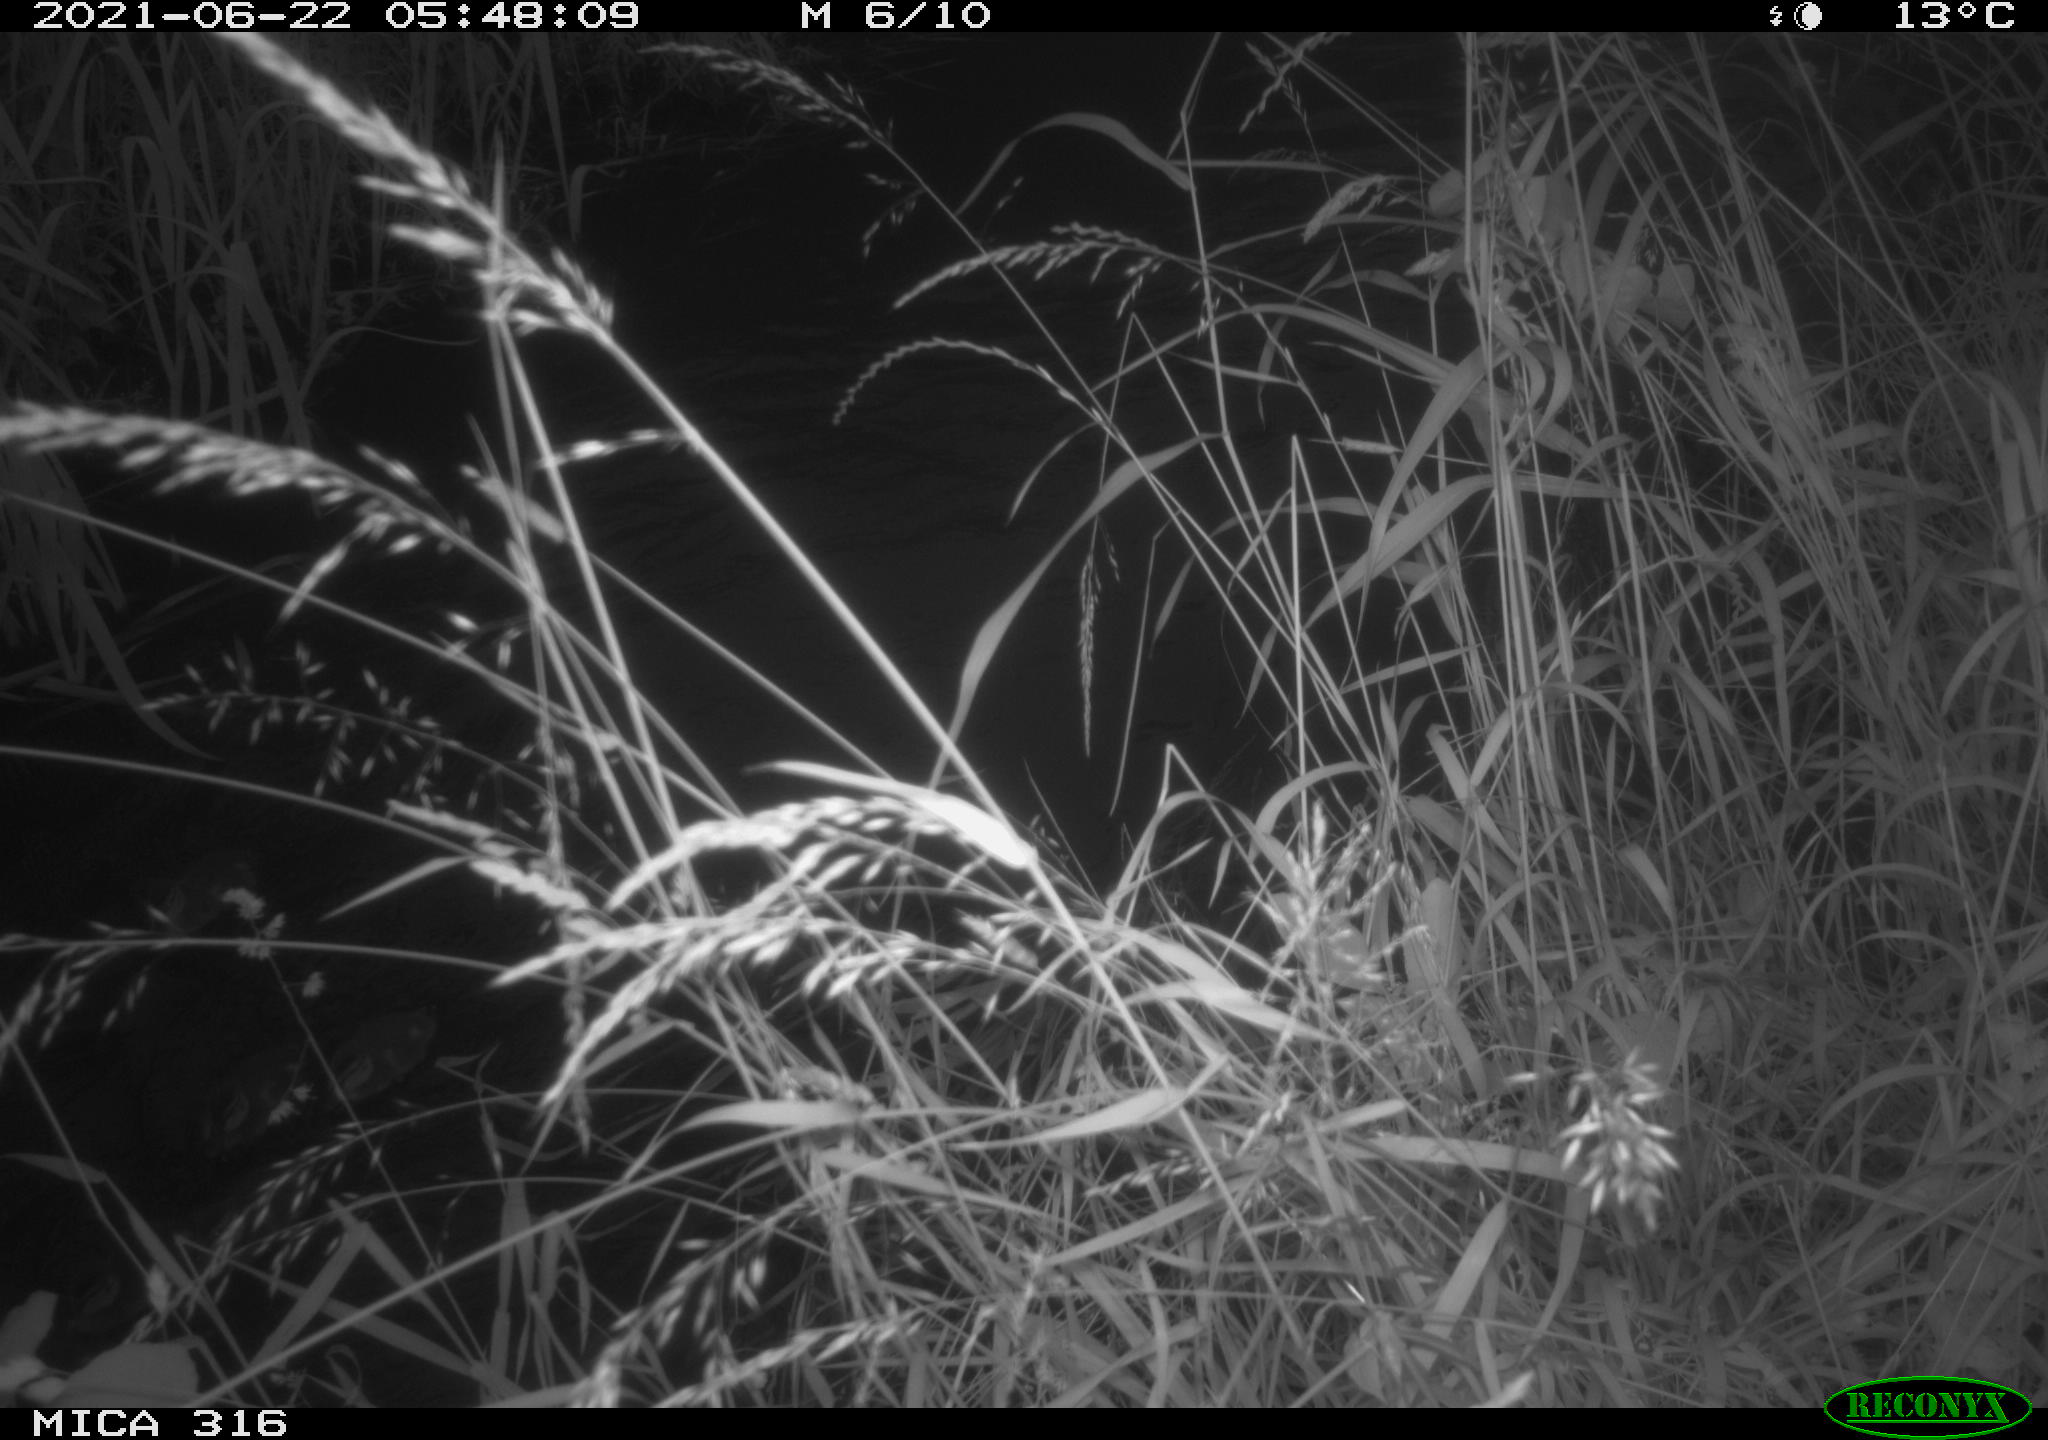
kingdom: Animalia
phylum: Chordata
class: Aves
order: Anseriformes
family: Anatidae
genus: Anas
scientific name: Anas platyrhynchos
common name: Mallard
